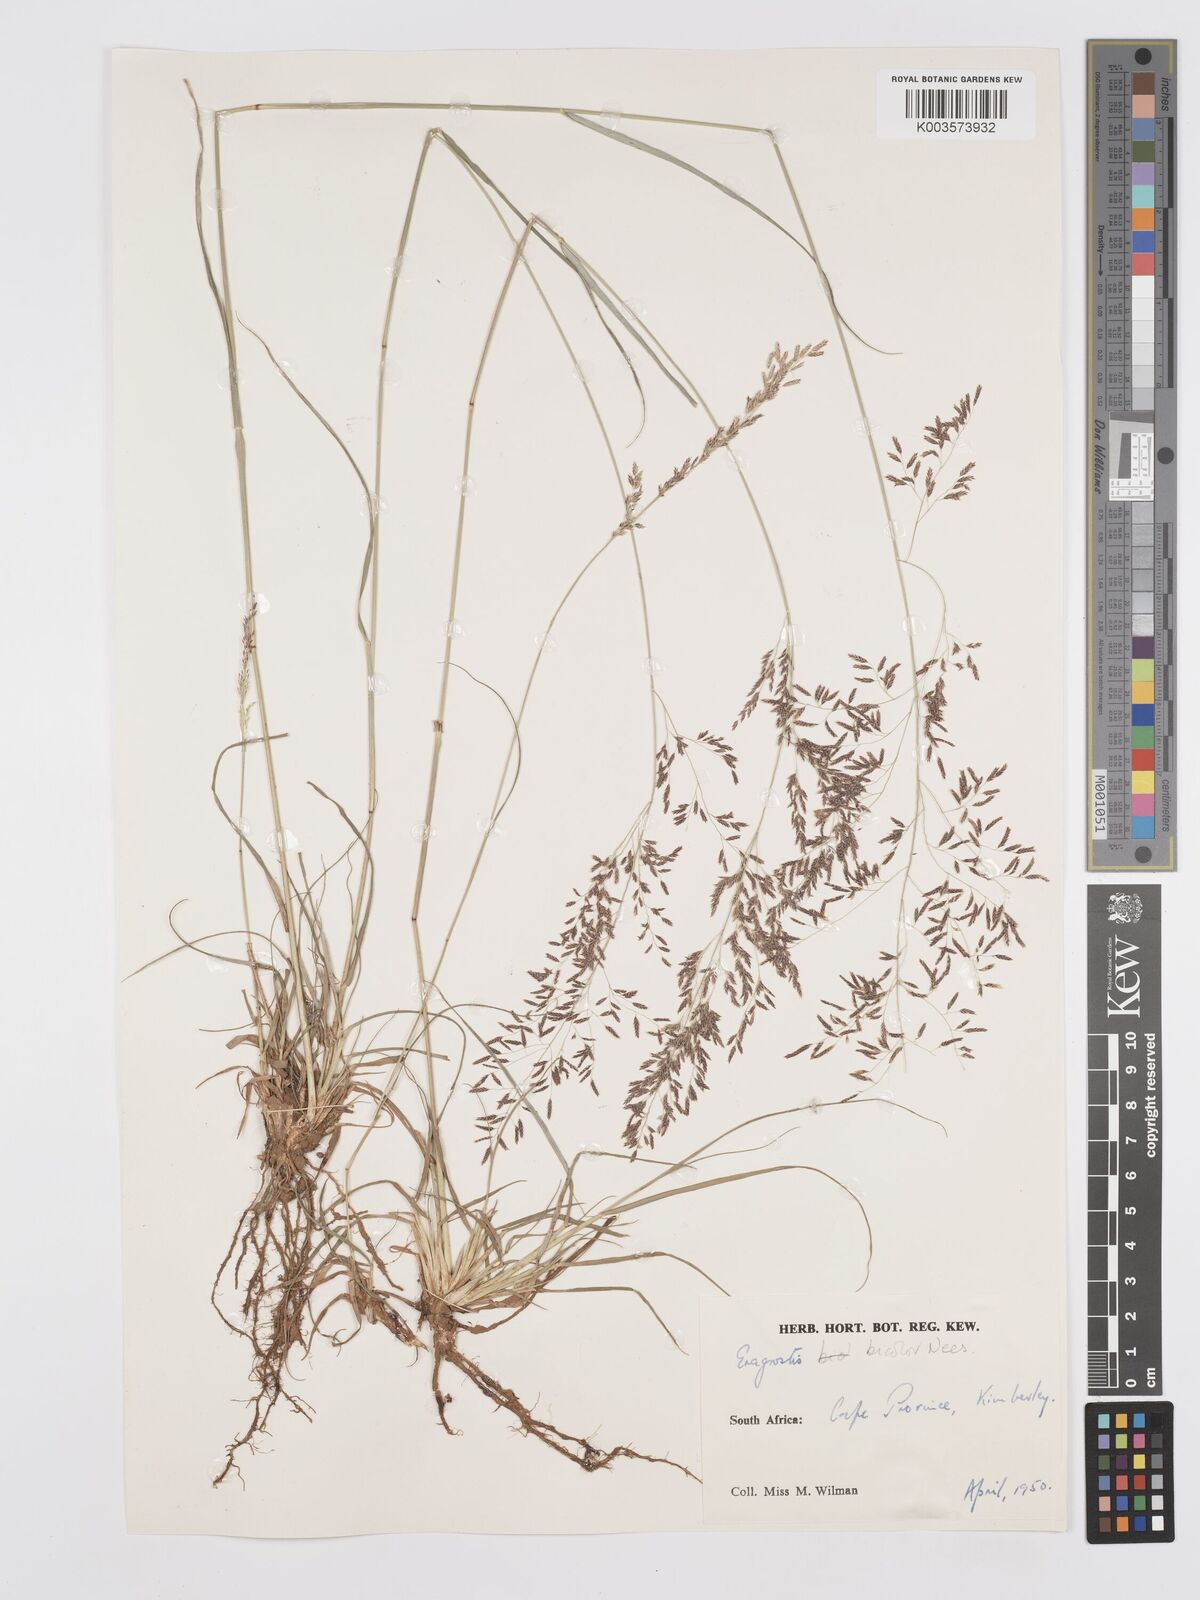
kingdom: Plantae
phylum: Tracheophyta
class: Liliopsida
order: Poales
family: Poaceae
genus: Eragrostis
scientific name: Eragrostis
